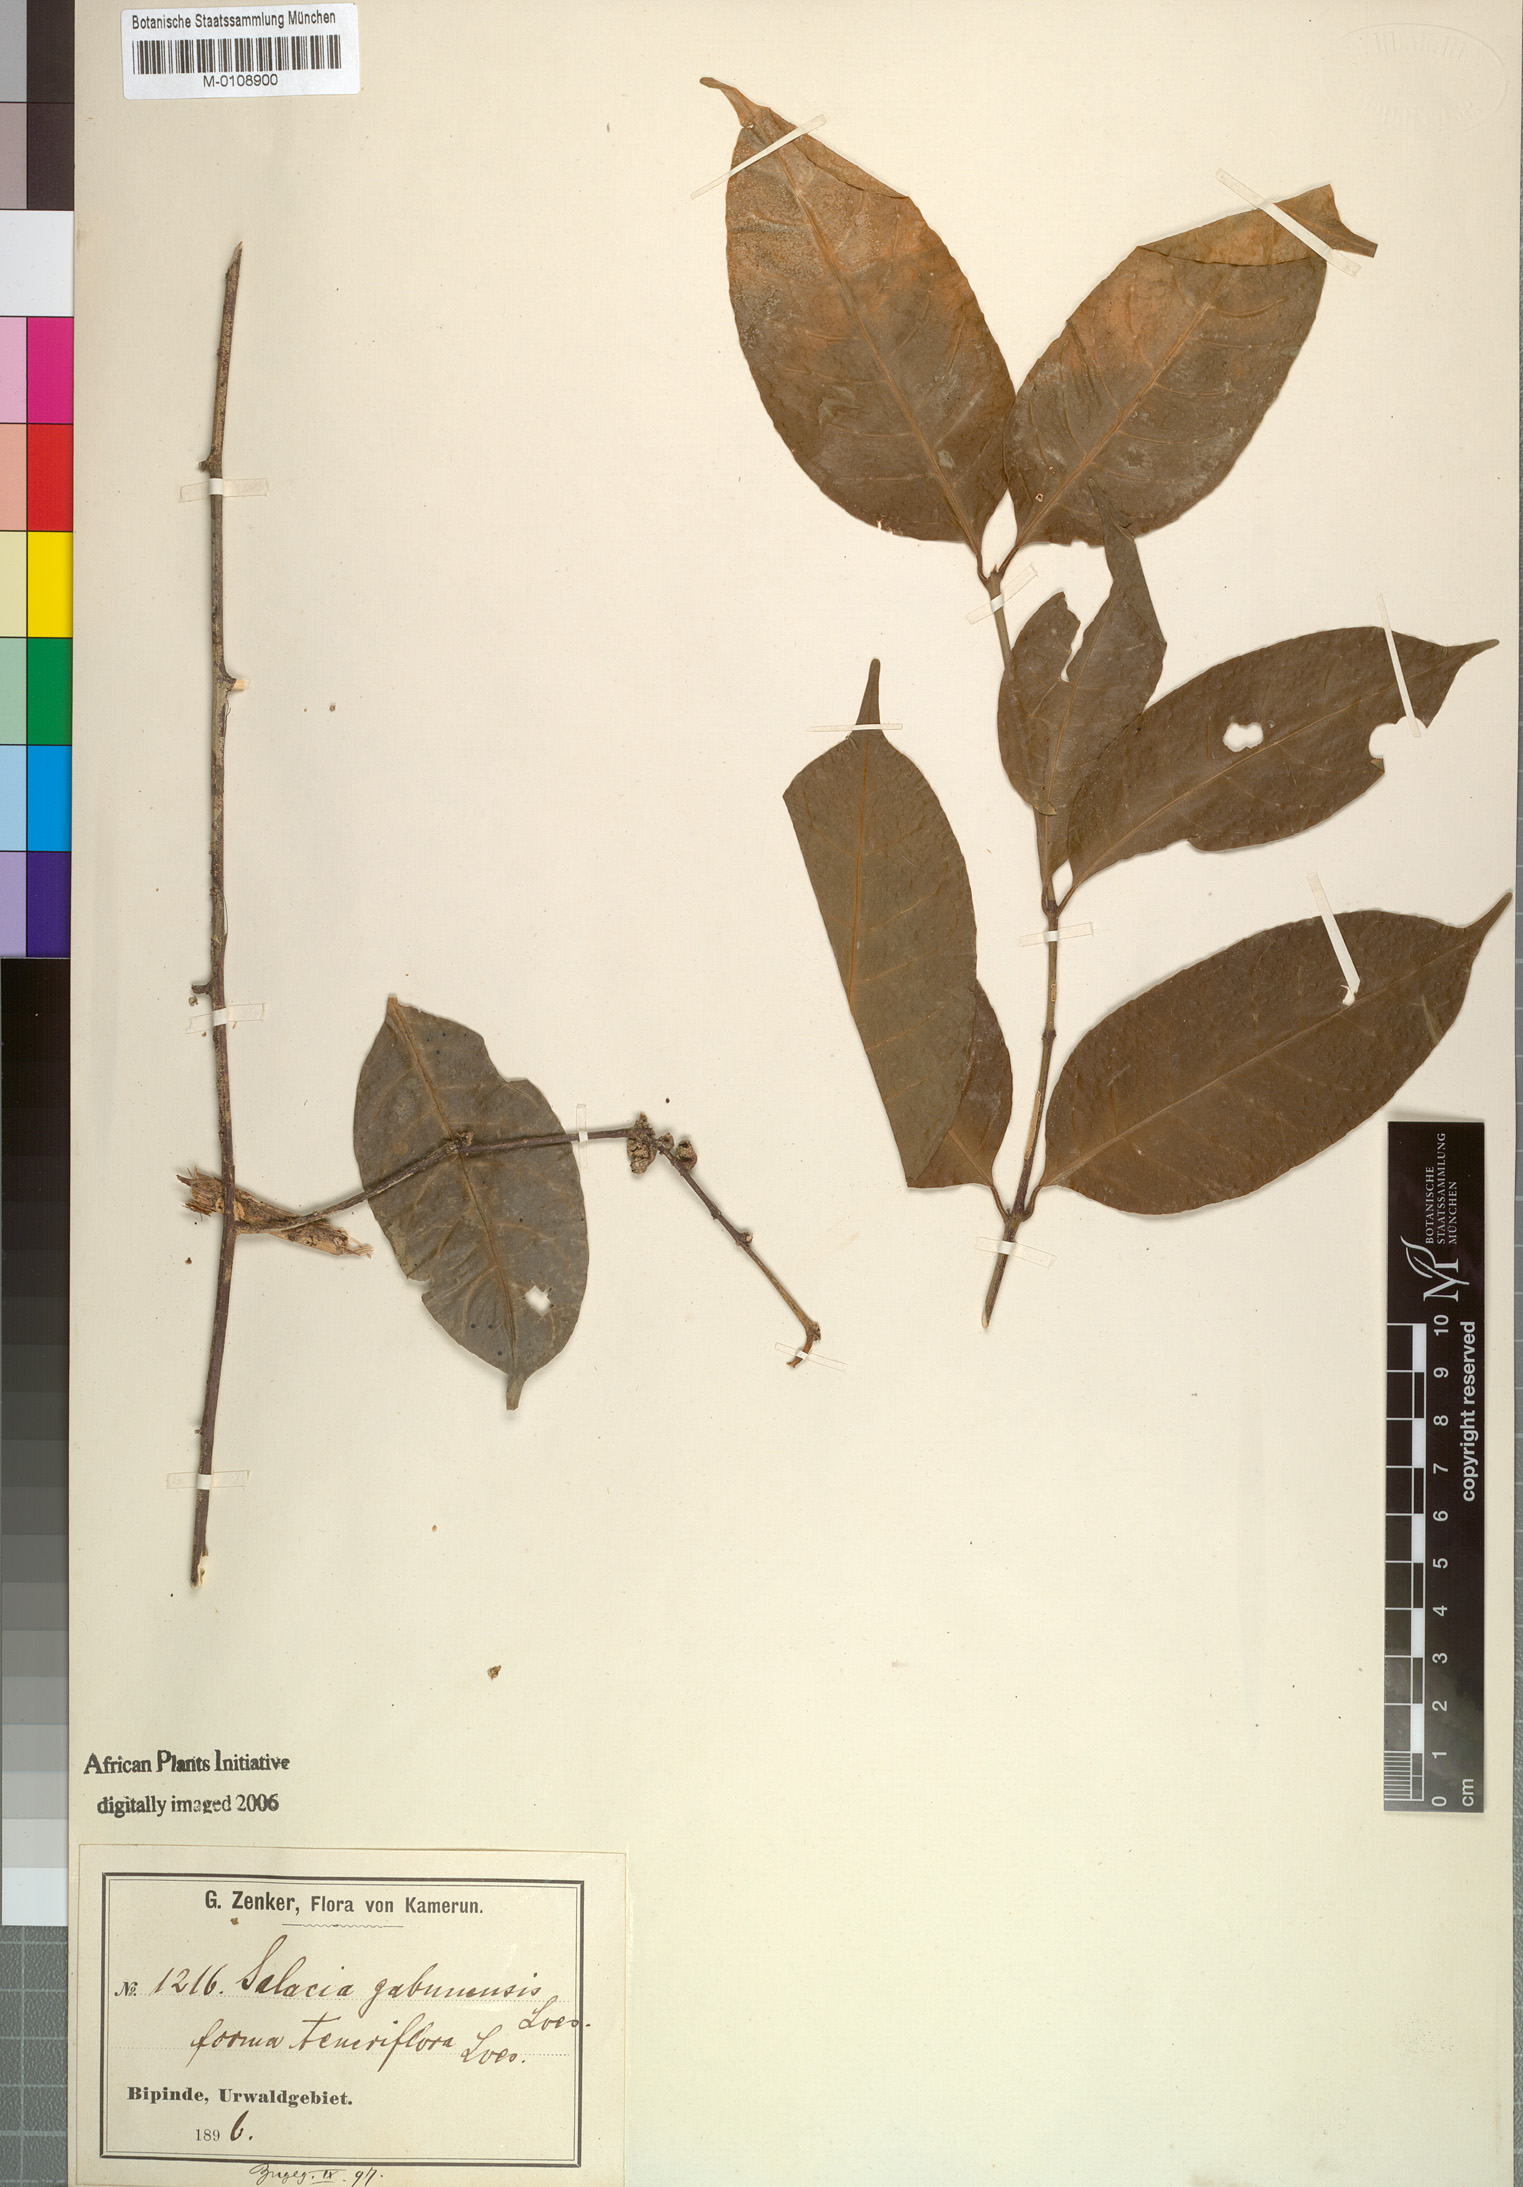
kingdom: Plantae
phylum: Tracheophyta
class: Magnoliopsida
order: Celastrales
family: Celastraceae
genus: Salacia
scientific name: Salacia gabunensis
